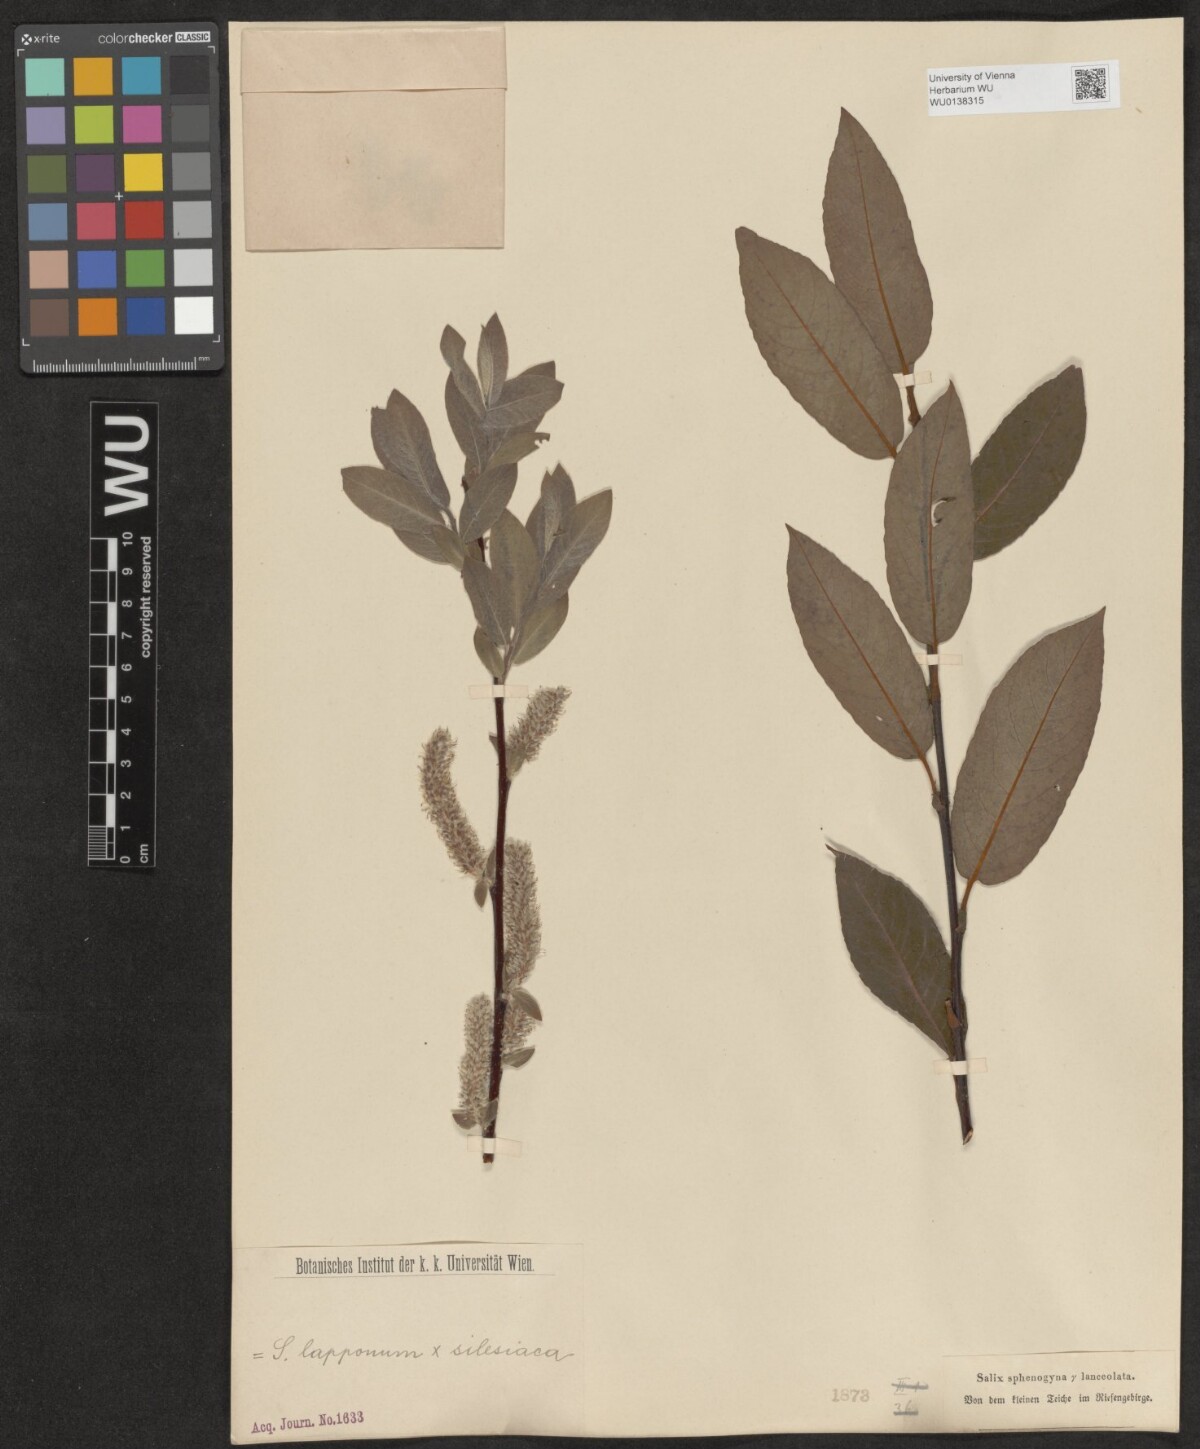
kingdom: Plantae
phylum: Tracheophyta
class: Magnoliopsida
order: Malpighiales
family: Salicaceae
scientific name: Salicaceae
